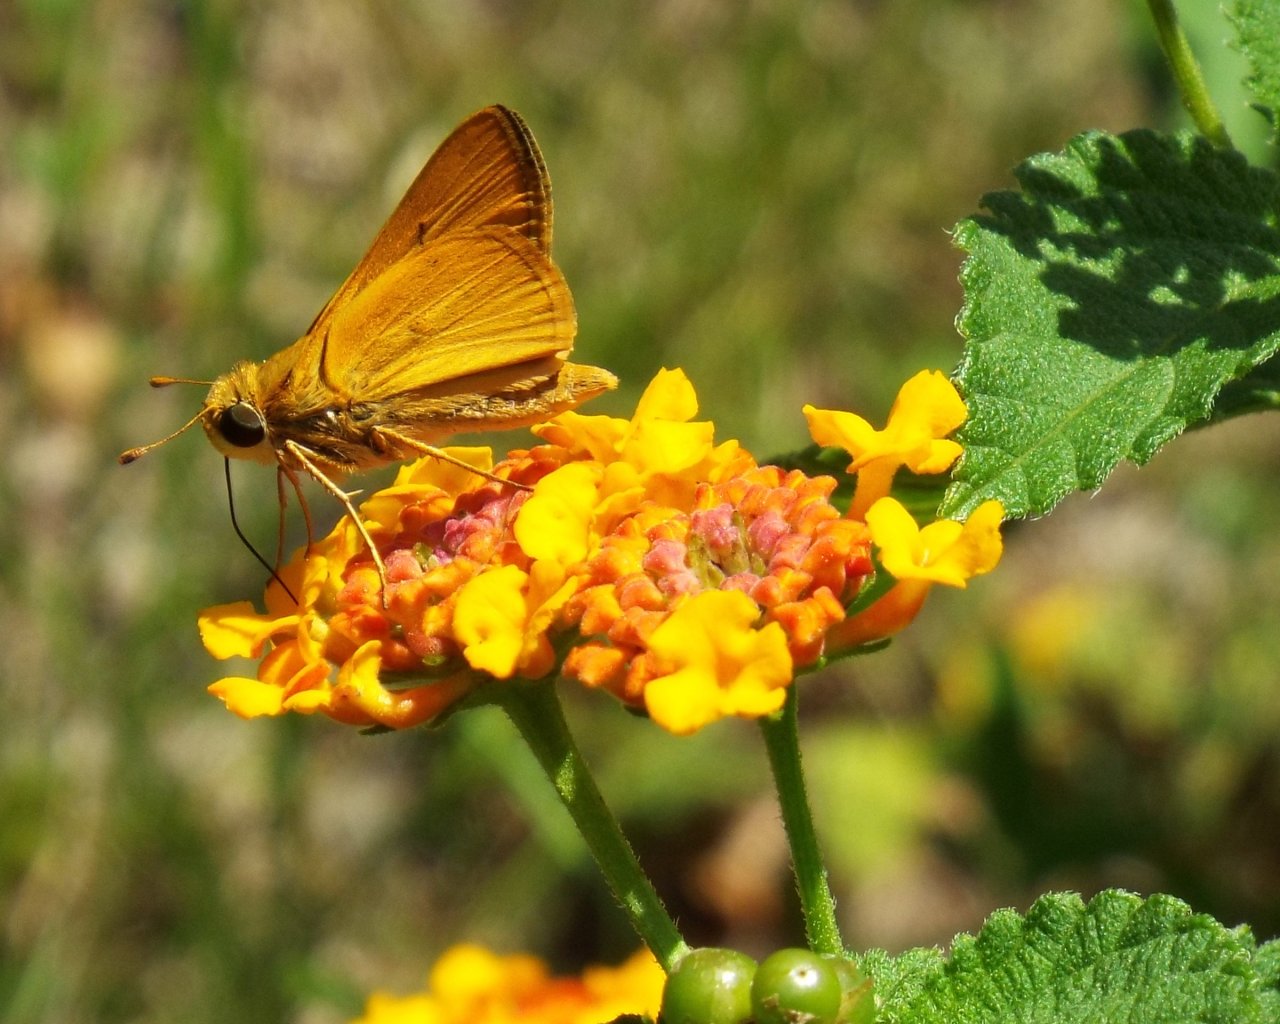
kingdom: Animalia
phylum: Arthropoda
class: Insecta
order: Lepidoptera
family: Hesperiidae
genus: Hylephila
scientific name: Hylephila phyleus
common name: Fiery Skipper
